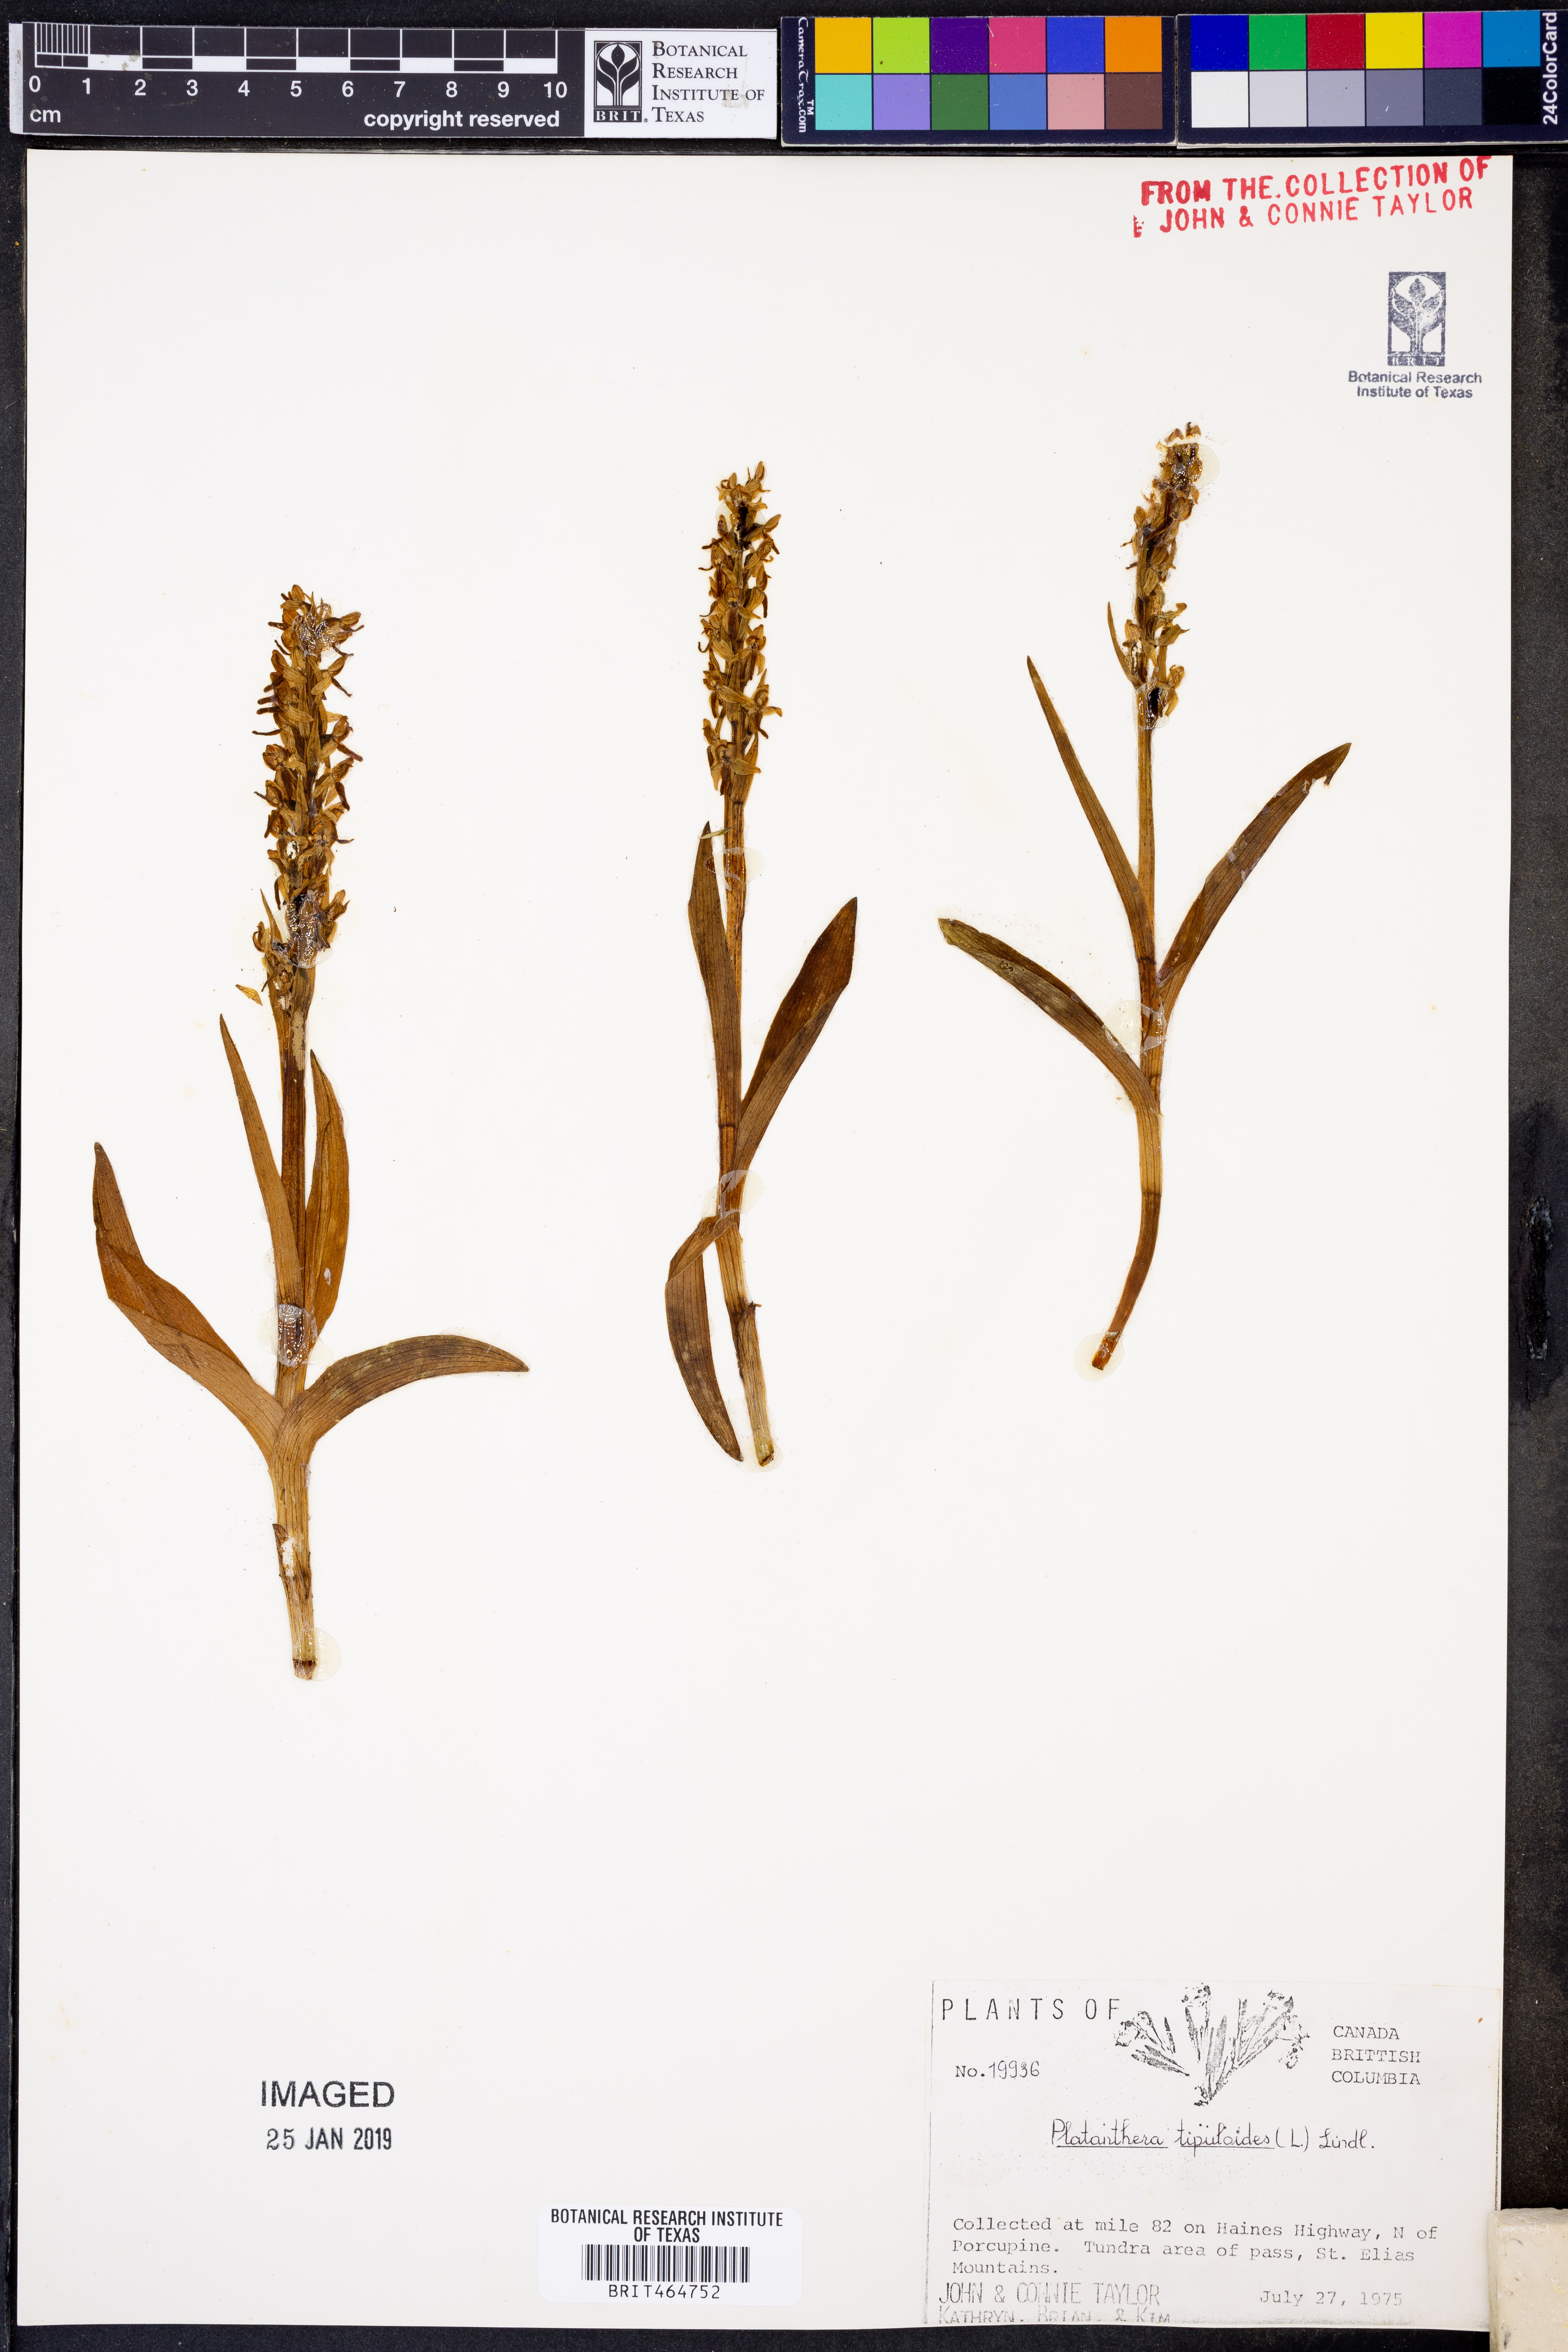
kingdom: Plantae
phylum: Tracheophyta
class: Liliopsida
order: Asparagales
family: Orchidaceae
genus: Platanthera
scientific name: Platanthera tipuloides
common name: Aleutian bog orchid
